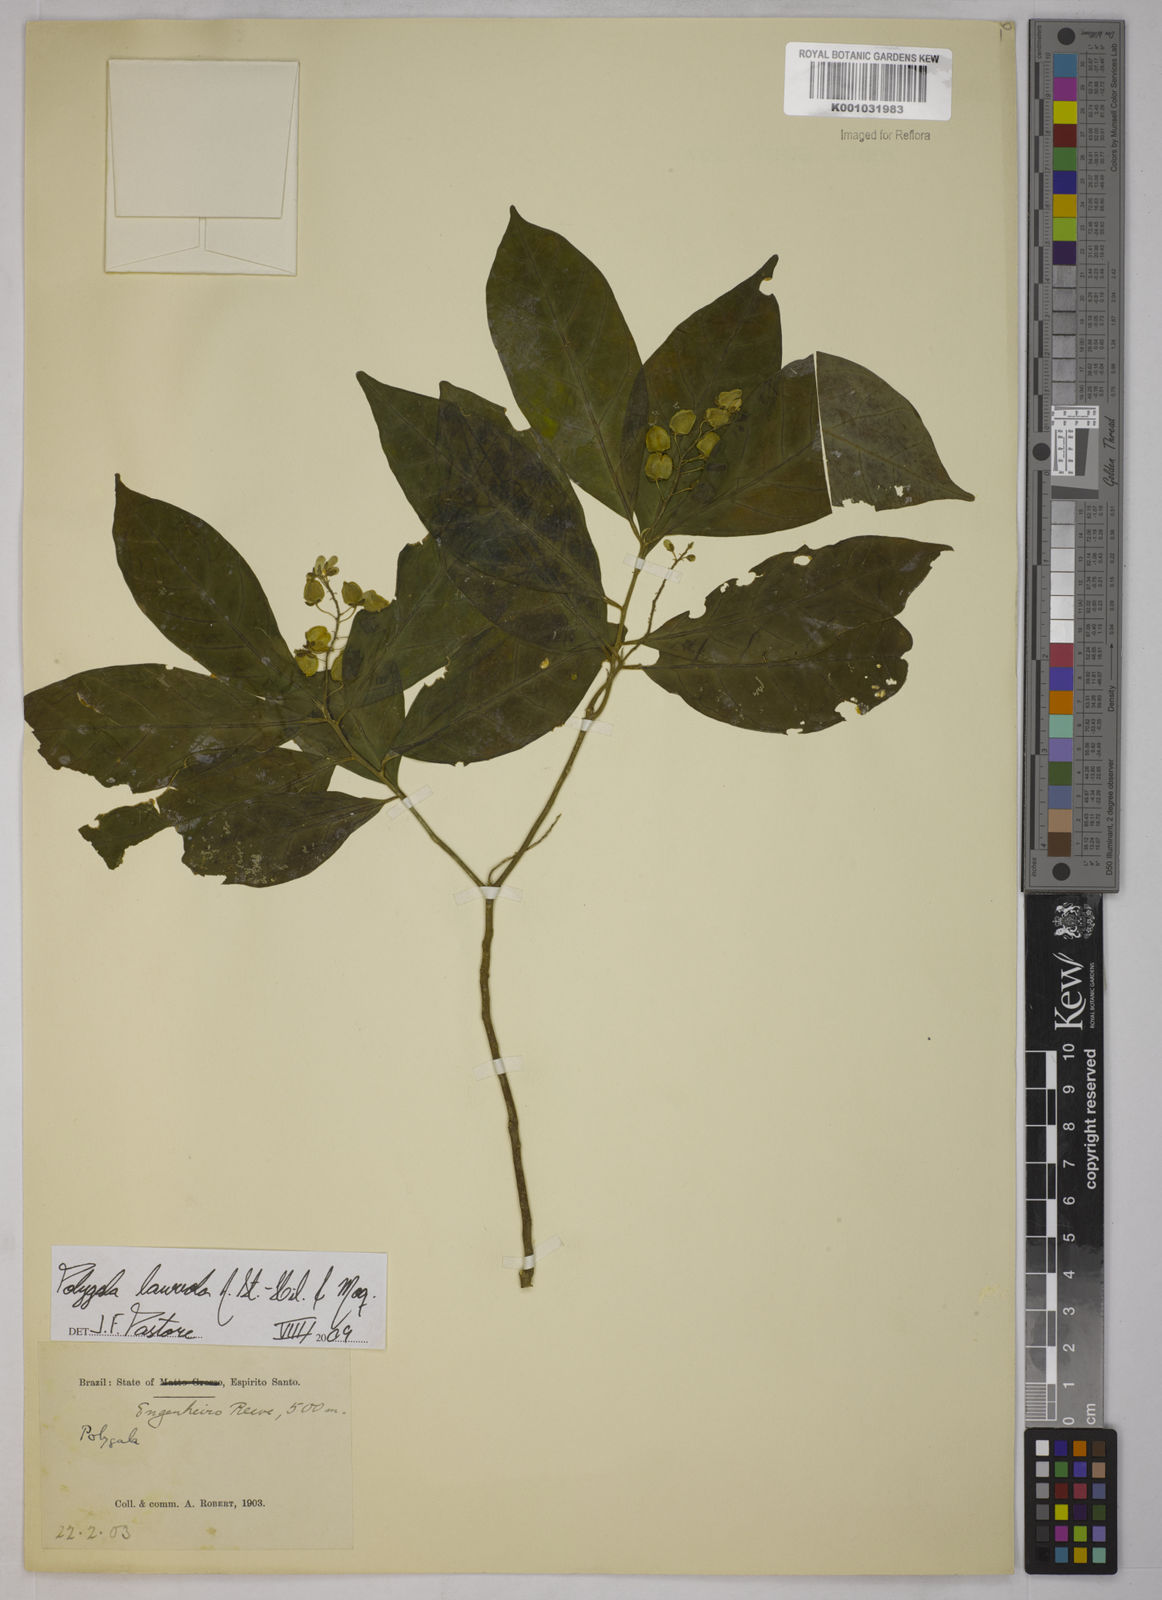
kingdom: Plantae
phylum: Tracheophyta
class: Magnoliopsida
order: Fabales
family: Polygalaceae
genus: Caamembeca
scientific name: Caamembeca salicifolia
